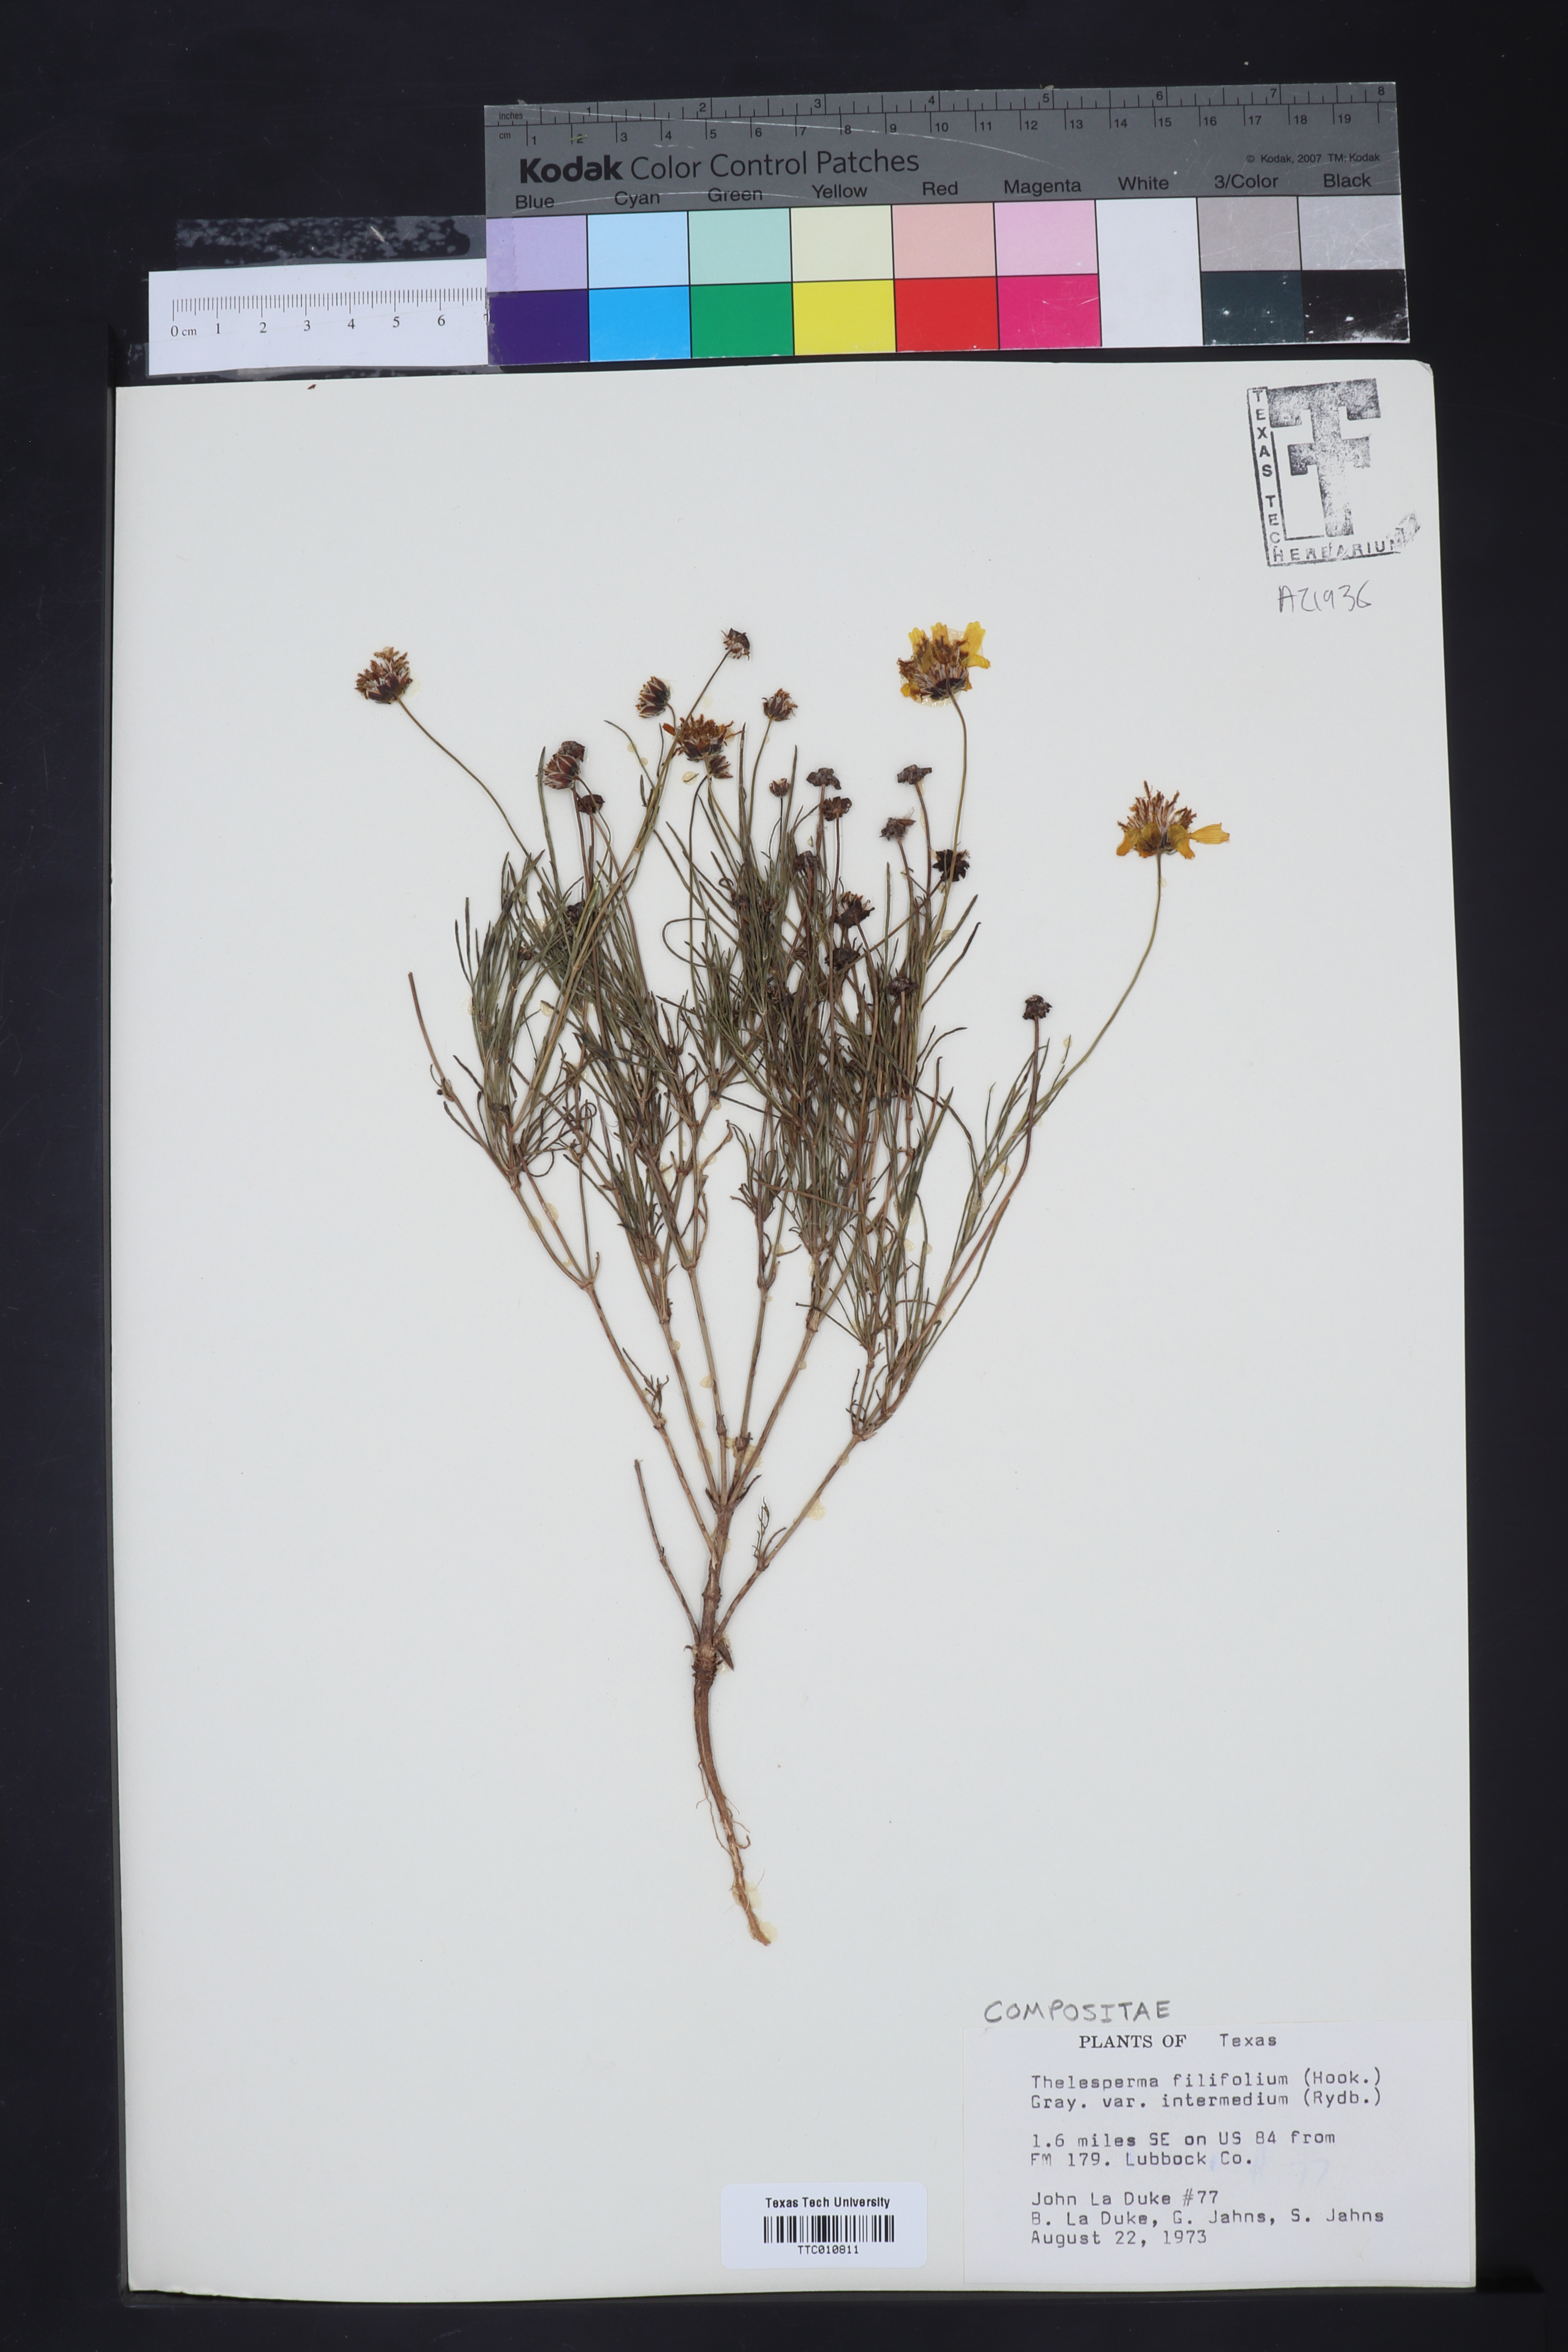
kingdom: Plantae
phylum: Tracheophyta
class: Magnoliopsida
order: Asterales
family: Asteraceae
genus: Thelesperma
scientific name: Thelesperma filifolium
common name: Stiff greenthread
